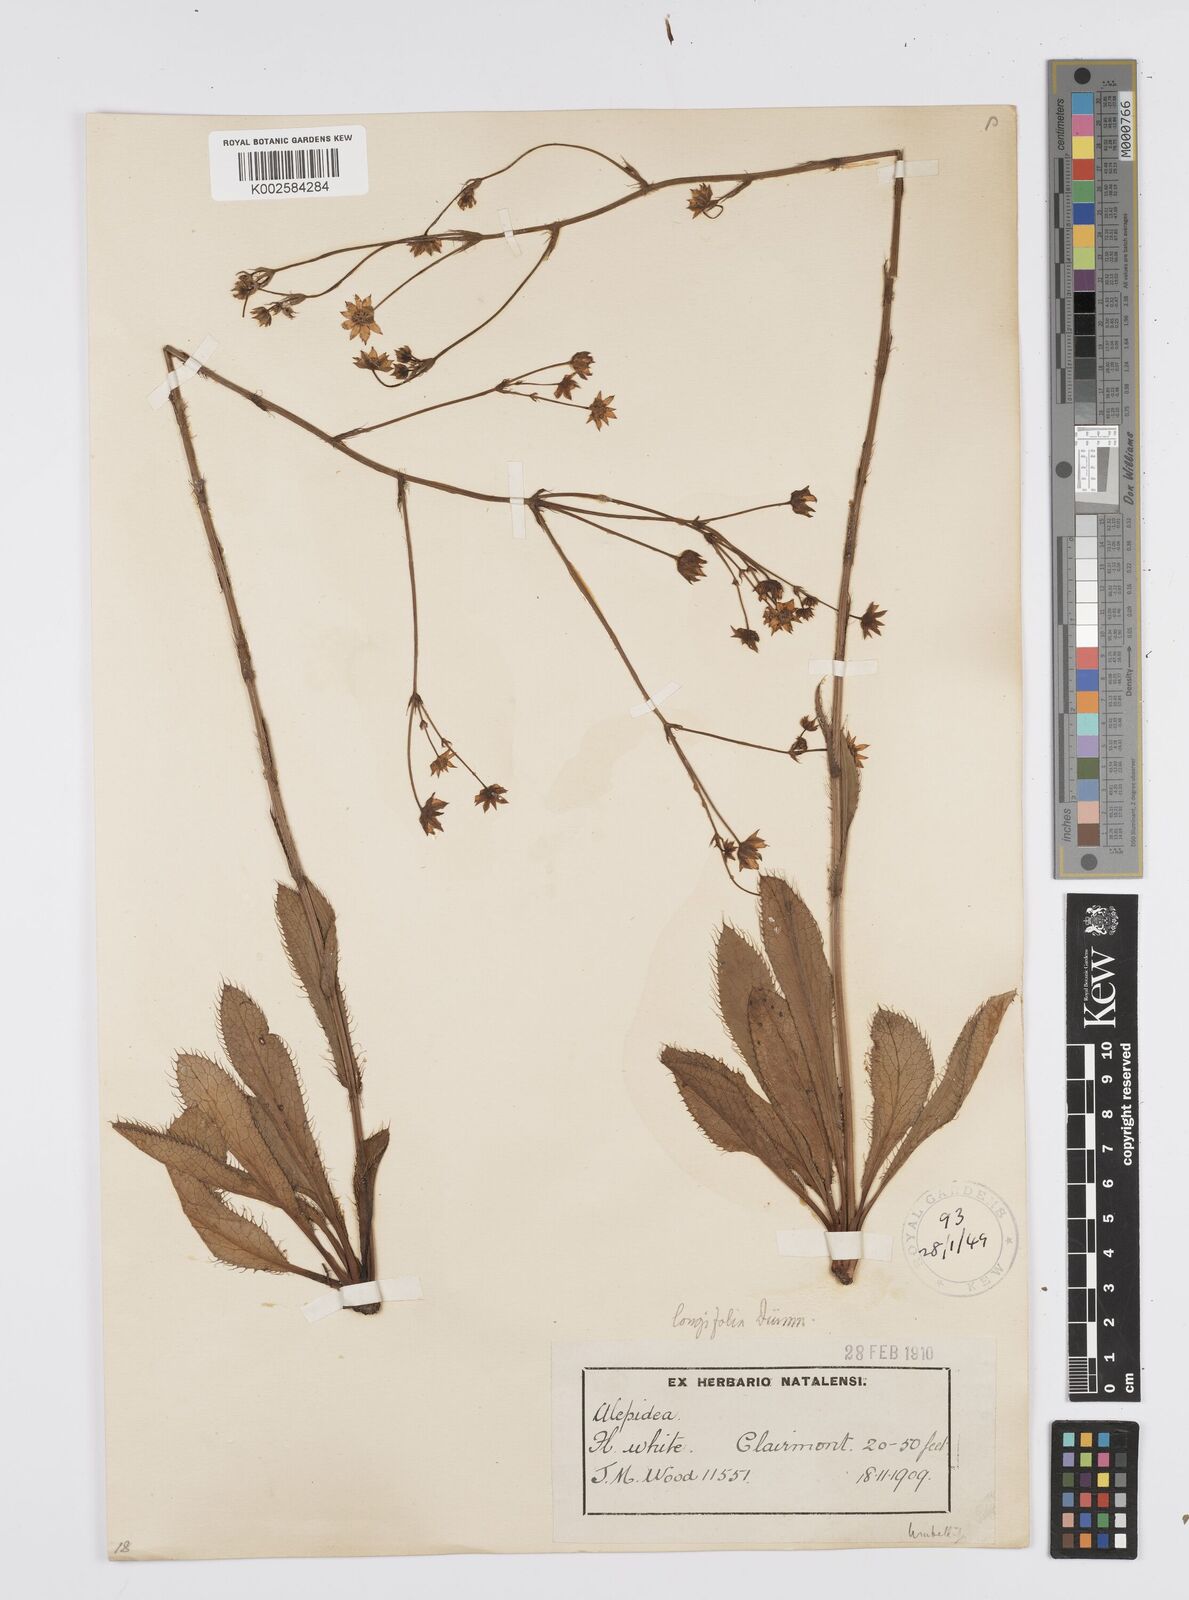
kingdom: Plantae
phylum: Tracheophyta
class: Magnoliopsida
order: Apiales
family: Apiaceae
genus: Alepidea
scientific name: Alepidea
